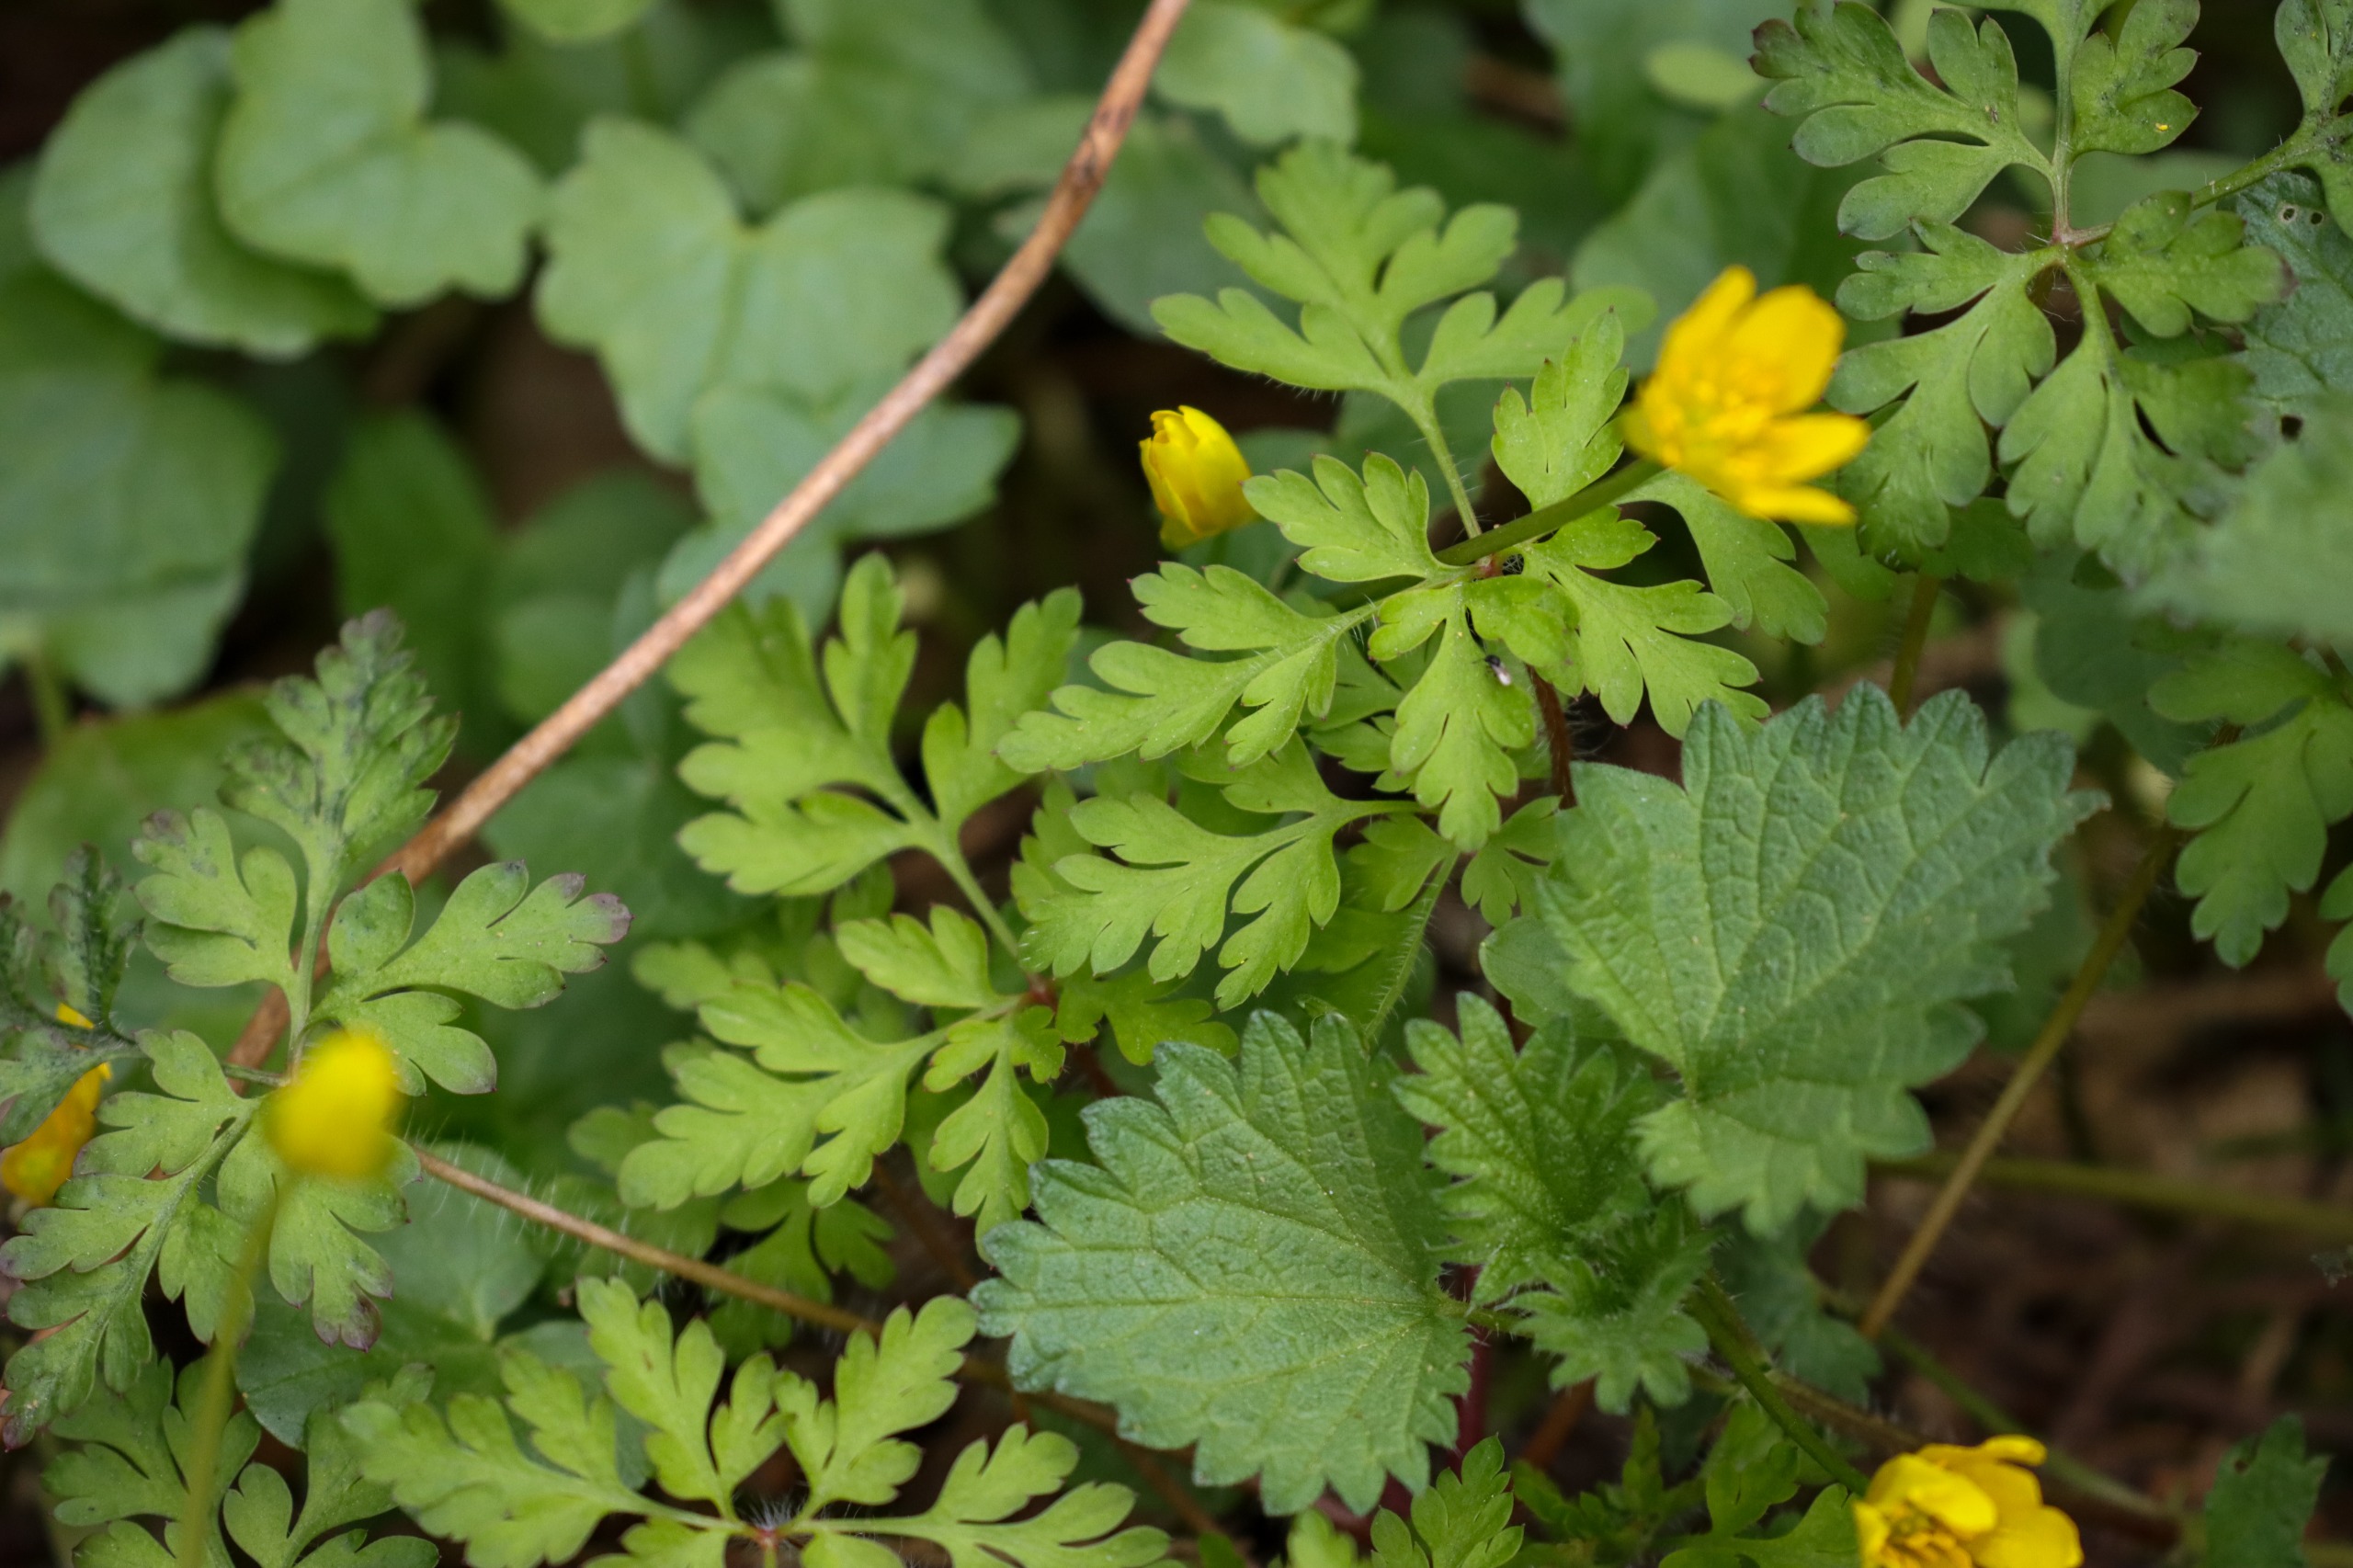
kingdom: Plantae
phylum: Tracheophyta
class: Magnoliopsida
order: Ranunculales
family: Ranunculaceae
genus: Ficaria
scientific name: Ficaria verna
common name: Vorterod
